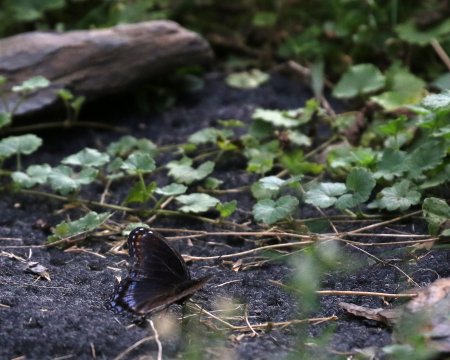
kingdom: Animalia
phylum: Arthropoda
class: Insecta
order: Lepidoptera
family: Nymphalidae
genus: Limenitis
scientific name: Limenitis arthemis
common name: Red-spotted Admiral
